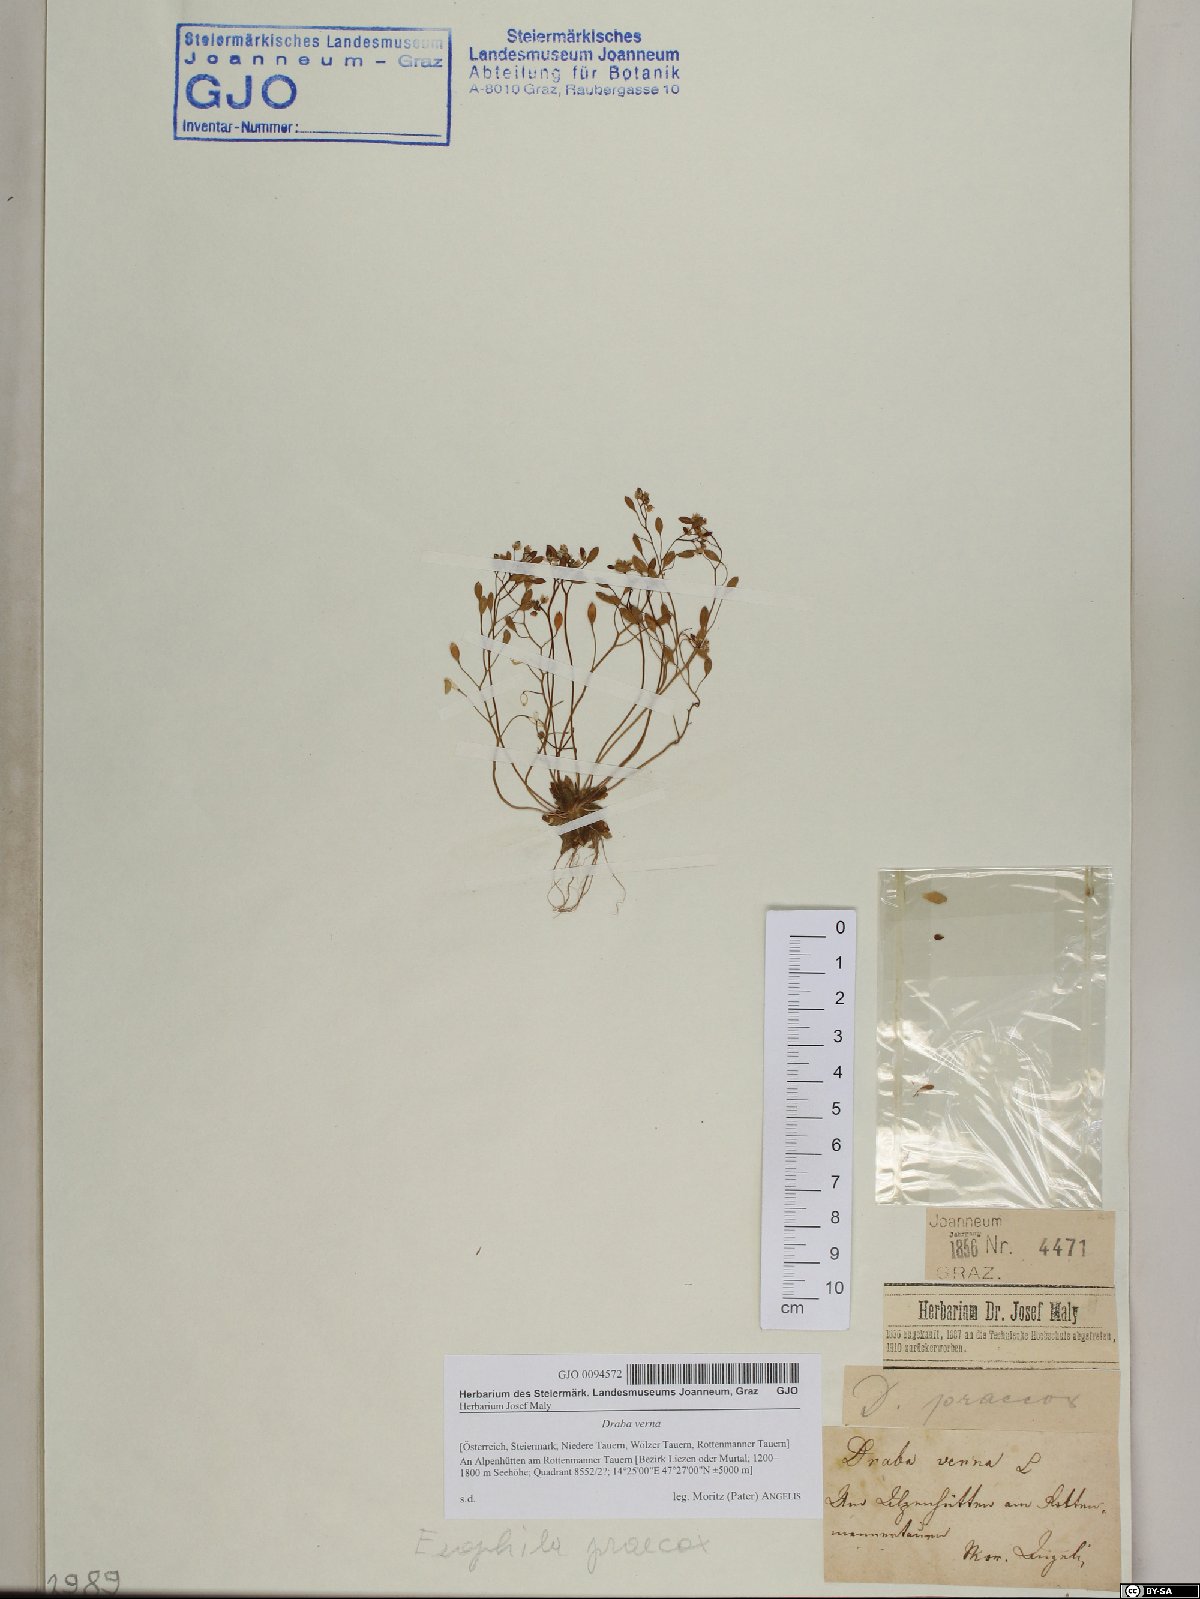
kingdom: Plantae
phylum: Tracheophyta
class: Magnoliopsida
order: Brassicales
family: Brassicaceae
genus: Draba
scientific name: Draba verna
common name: Spring draba
